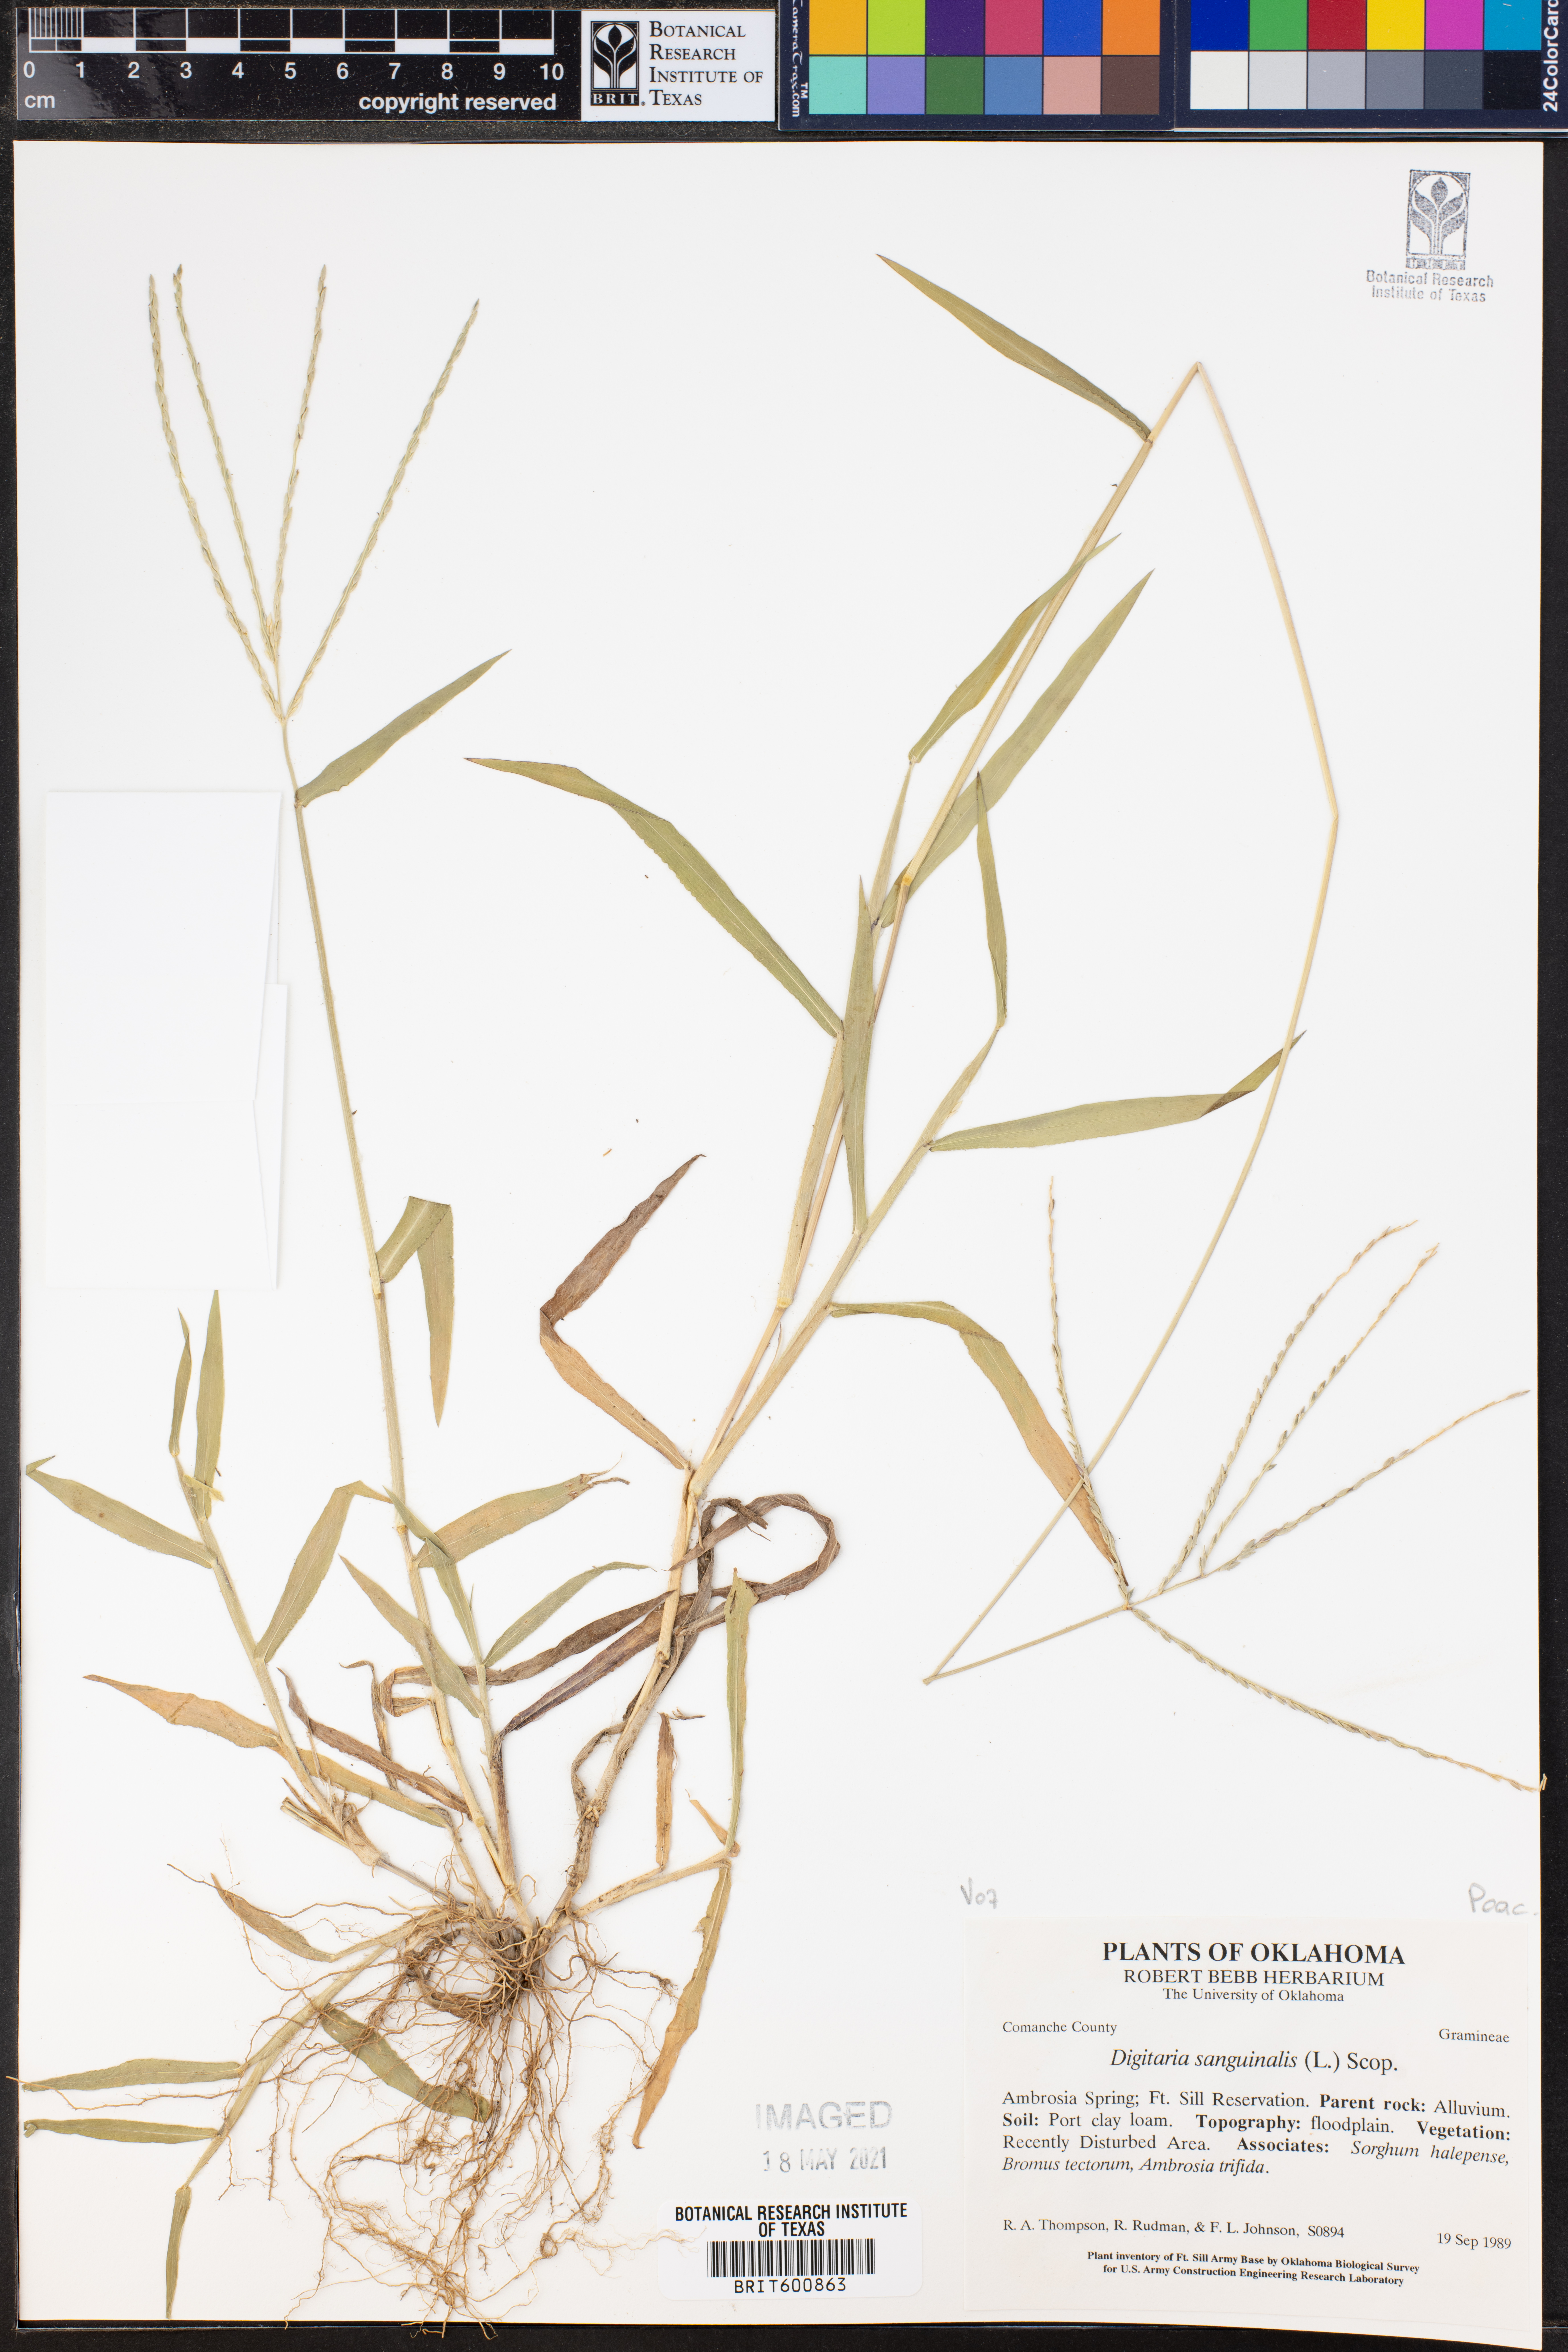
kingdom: Plantae
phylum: Tracheophyta
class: Liliopsida
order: Poales
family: Poaceae
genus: Digitaria
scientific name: Digitaria sanguinalis
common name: Hairy crabgrass
